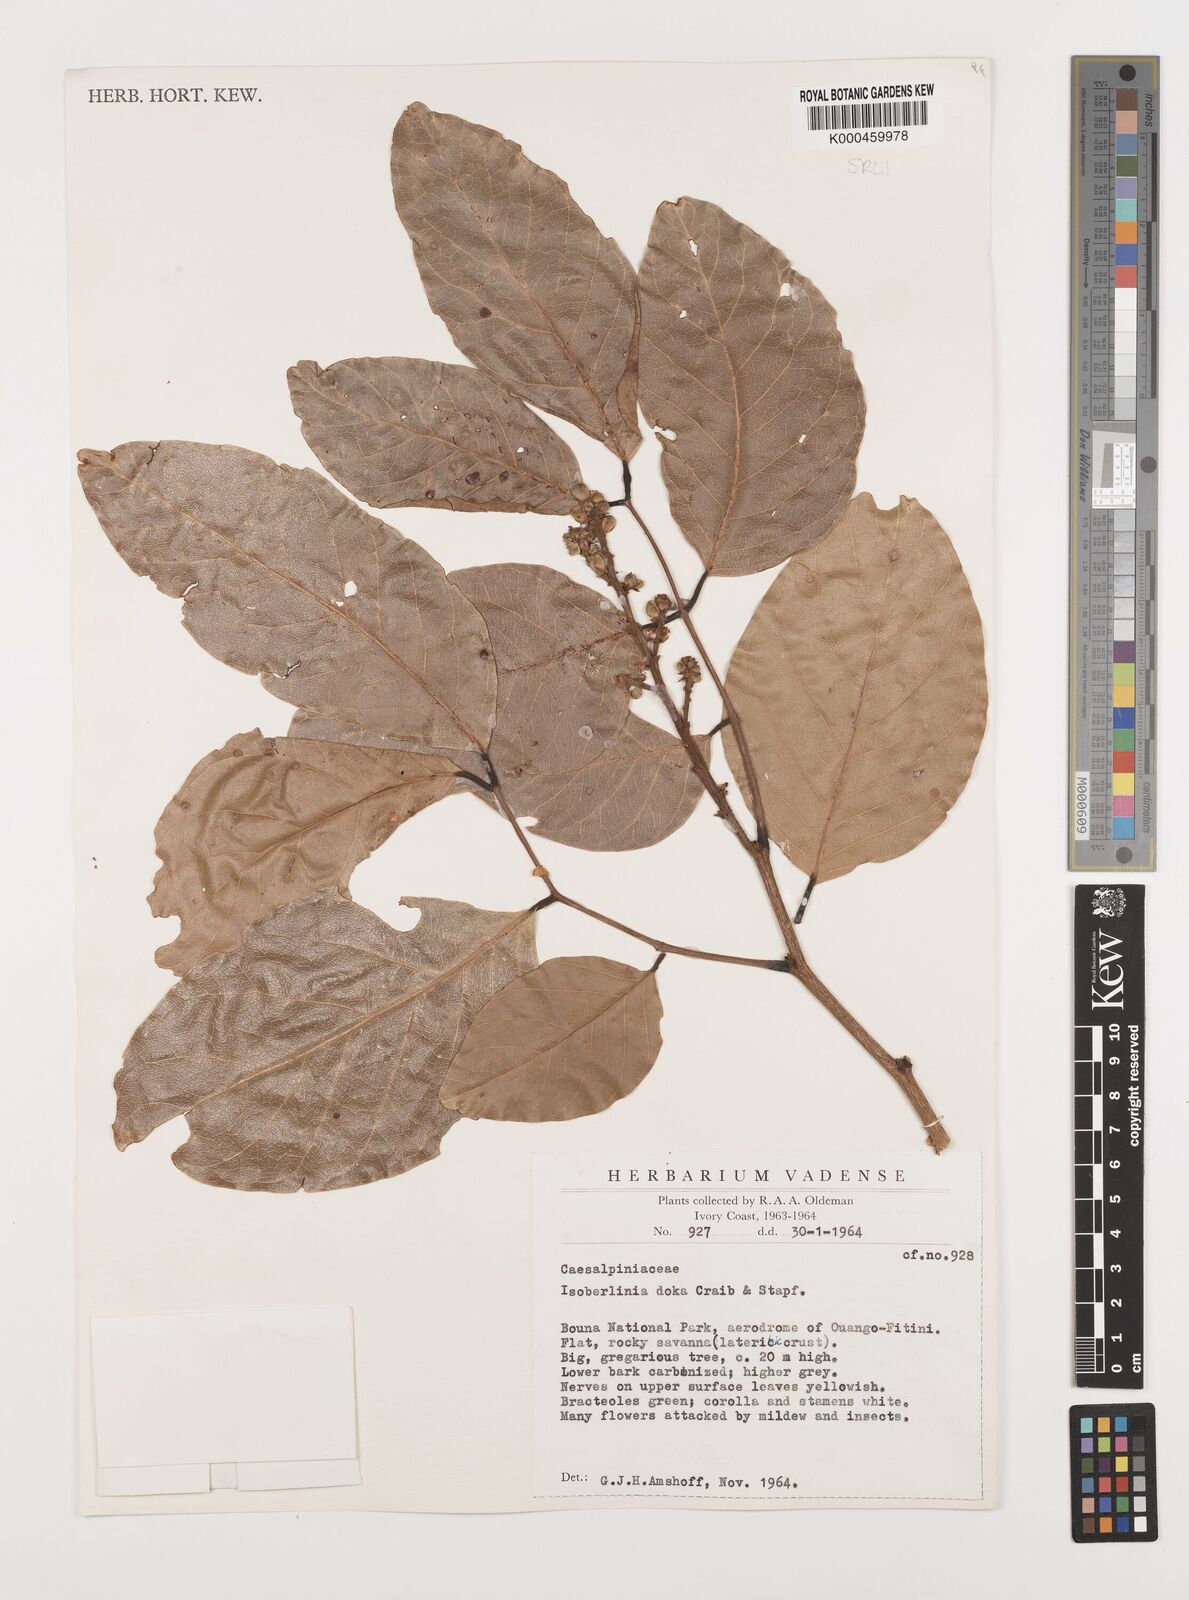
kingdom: Plantae
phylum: Tracheophyta
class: Magnoliopsida
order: Fabales
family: Fabaceae
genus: Isoberlinia
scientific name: Isoberlinia doka
